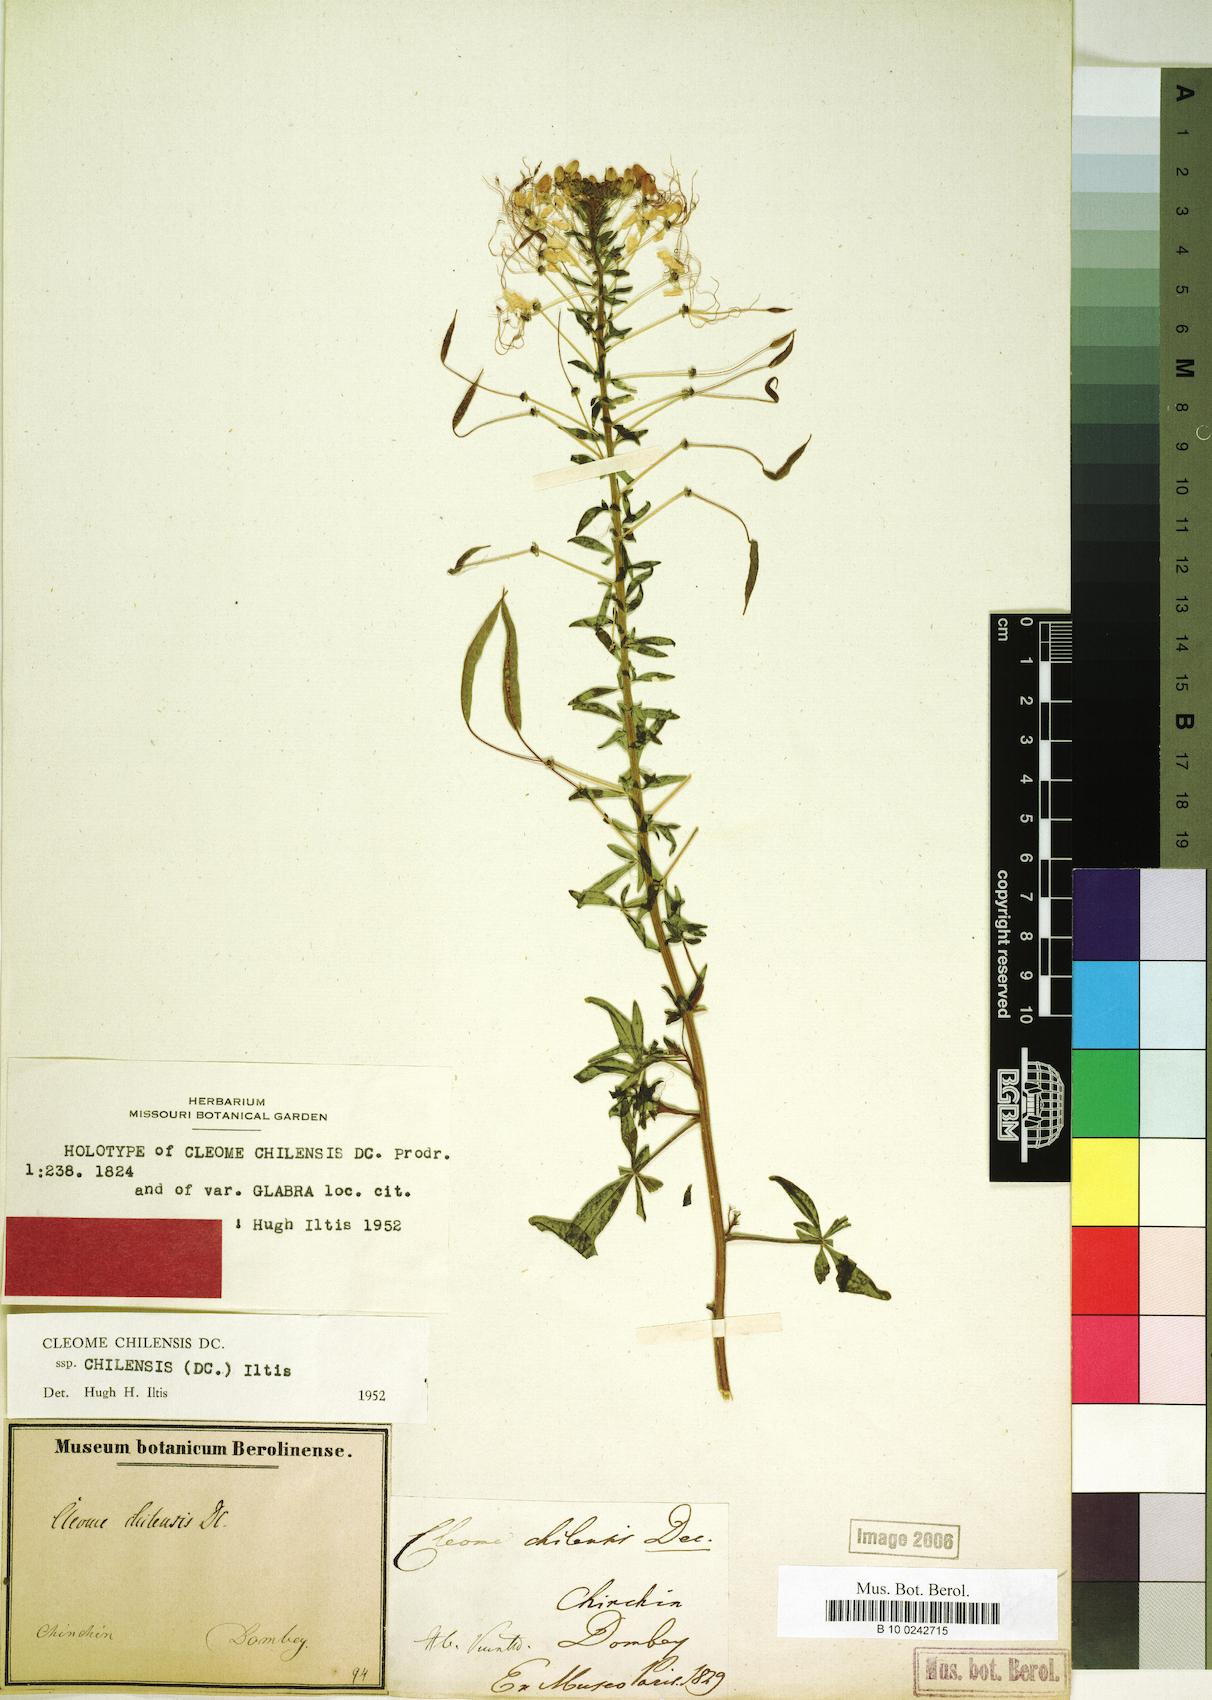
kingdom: Plantae
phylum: Tracheophyta
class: Magnoliopsida
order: Brassicales
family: Cleomaceae
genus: Andinocleome
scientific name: Andinocleome chilensis
